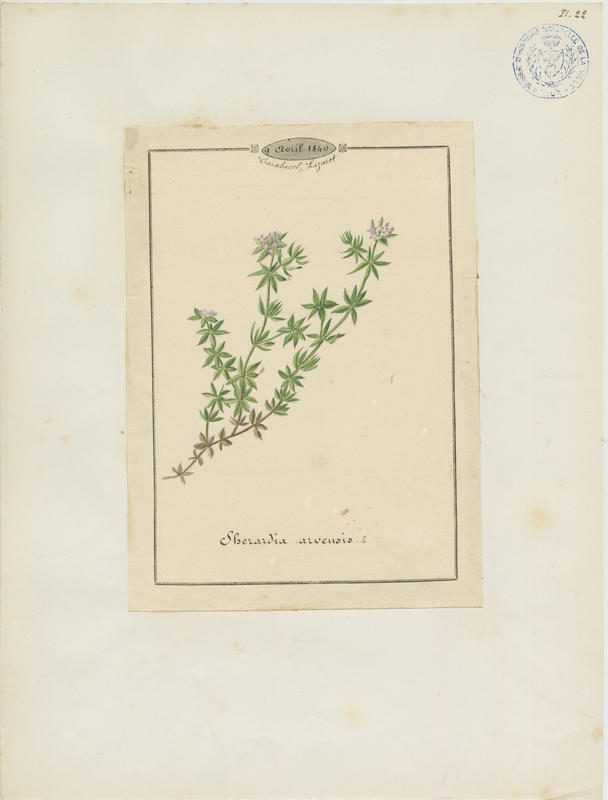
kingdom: Plantae
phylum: Tracheophyta
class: Magnoliopsida
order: Gentianales
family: Rubiaceae
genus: Sherardia
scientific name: Sherardia arvensis
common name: Field madder
